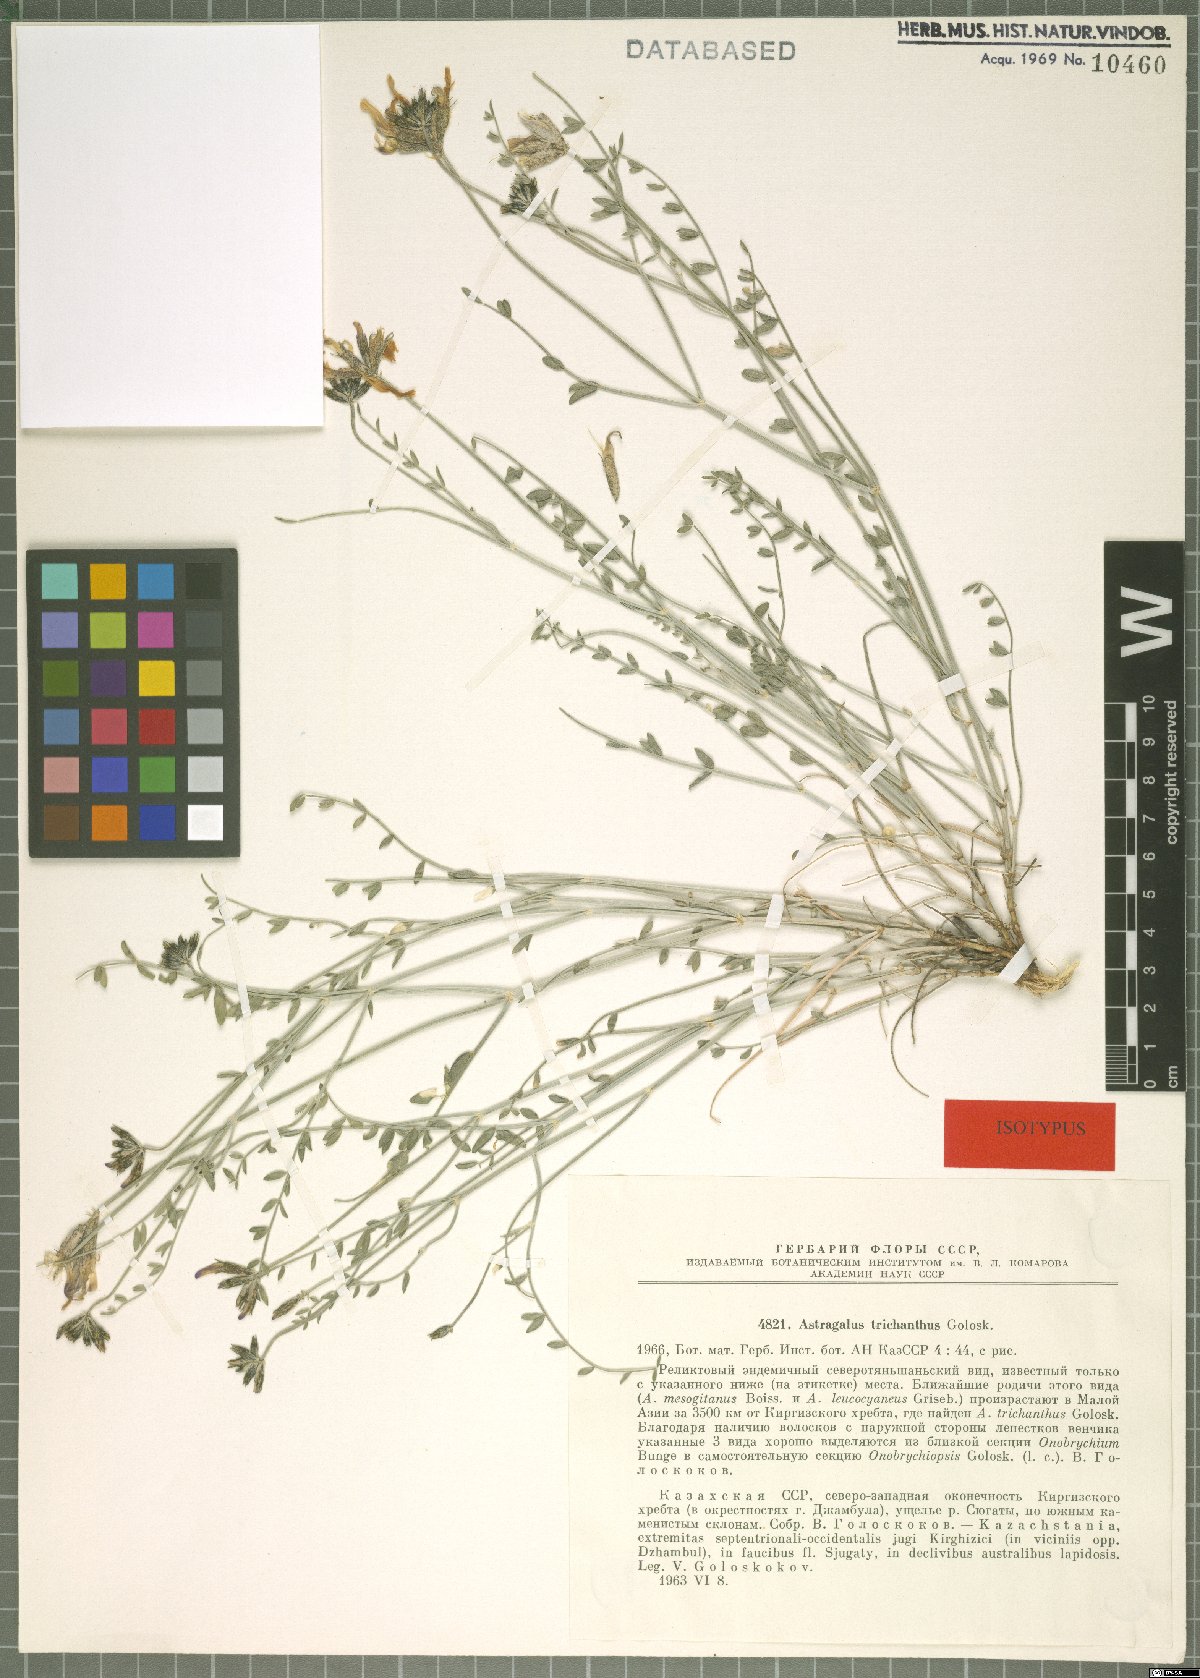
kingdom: Plantae
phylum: Tracheophyta
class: Magnoliopsida
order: Fabales
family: Fabaceae
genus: Astragalus
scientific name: Astragalus trichanthus
